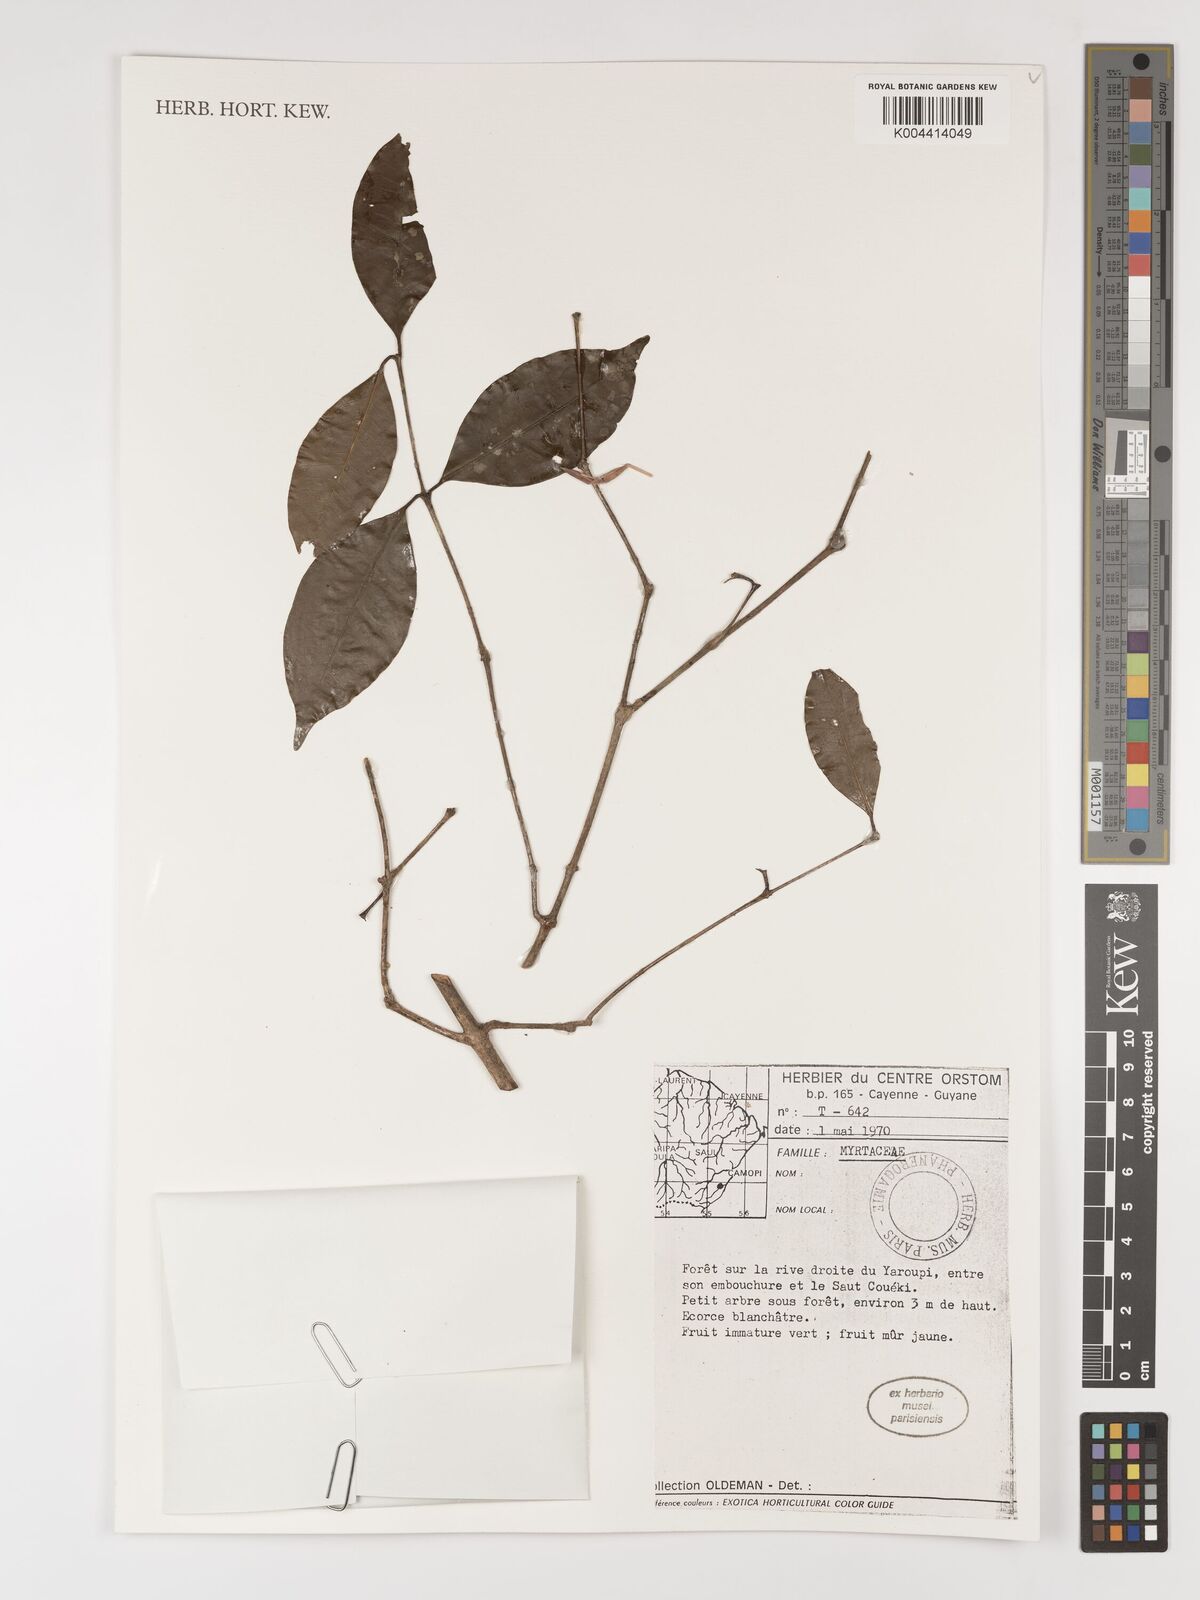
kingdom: Plantae
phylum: Tracheophyta
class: Magnoliopsida
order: Myrtales
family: Myrtaceae
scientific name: Myrtaceae
